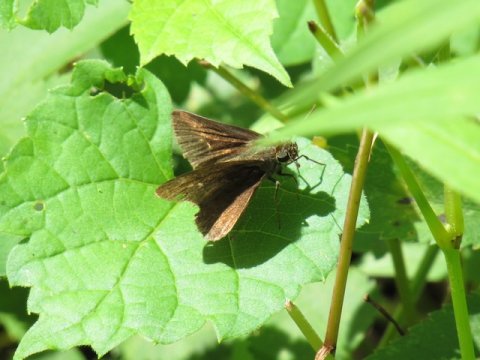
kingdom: Animalia
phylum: Arthropoda
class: Insecta
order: Lepidoptera
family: Hesperiidae
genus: Euphyes
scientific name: Euphyes vestris
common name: Dun Skipper
